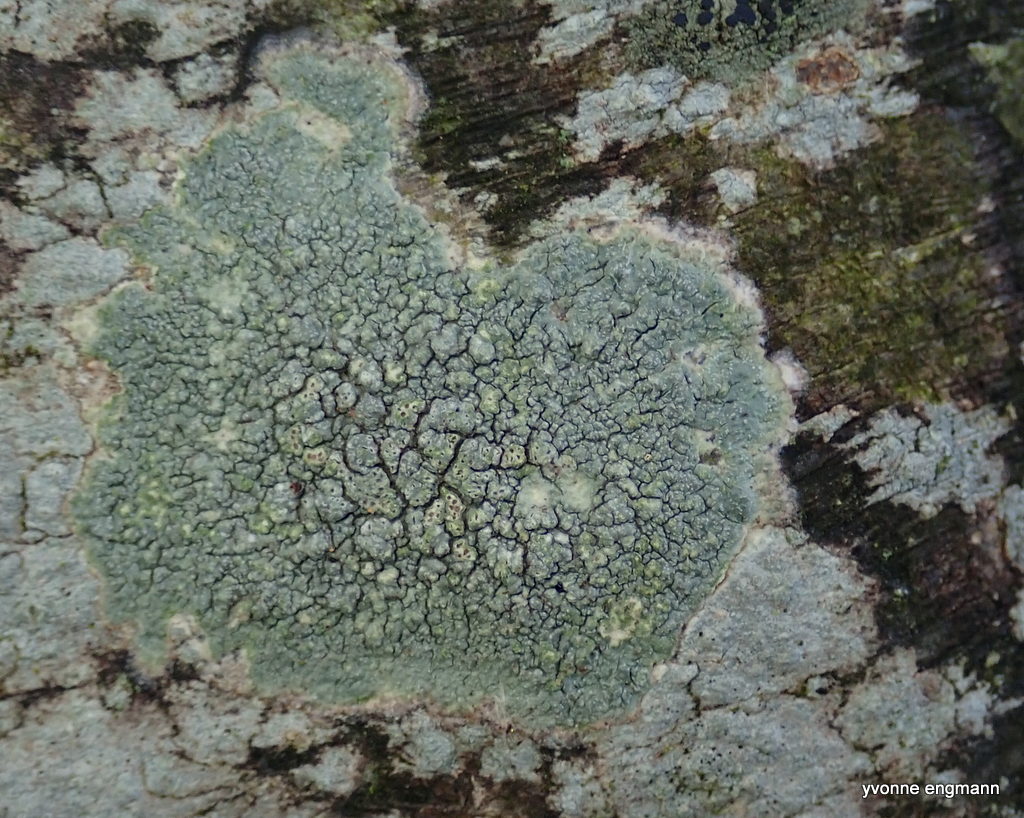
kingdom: Fungi
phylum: Ascomycota
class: Lecanoromycetes
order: Pertusariales
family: Pertusariaceae
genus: Pertusaria
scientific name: Pertusaria pertusa
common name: almindelig prikvortelav
